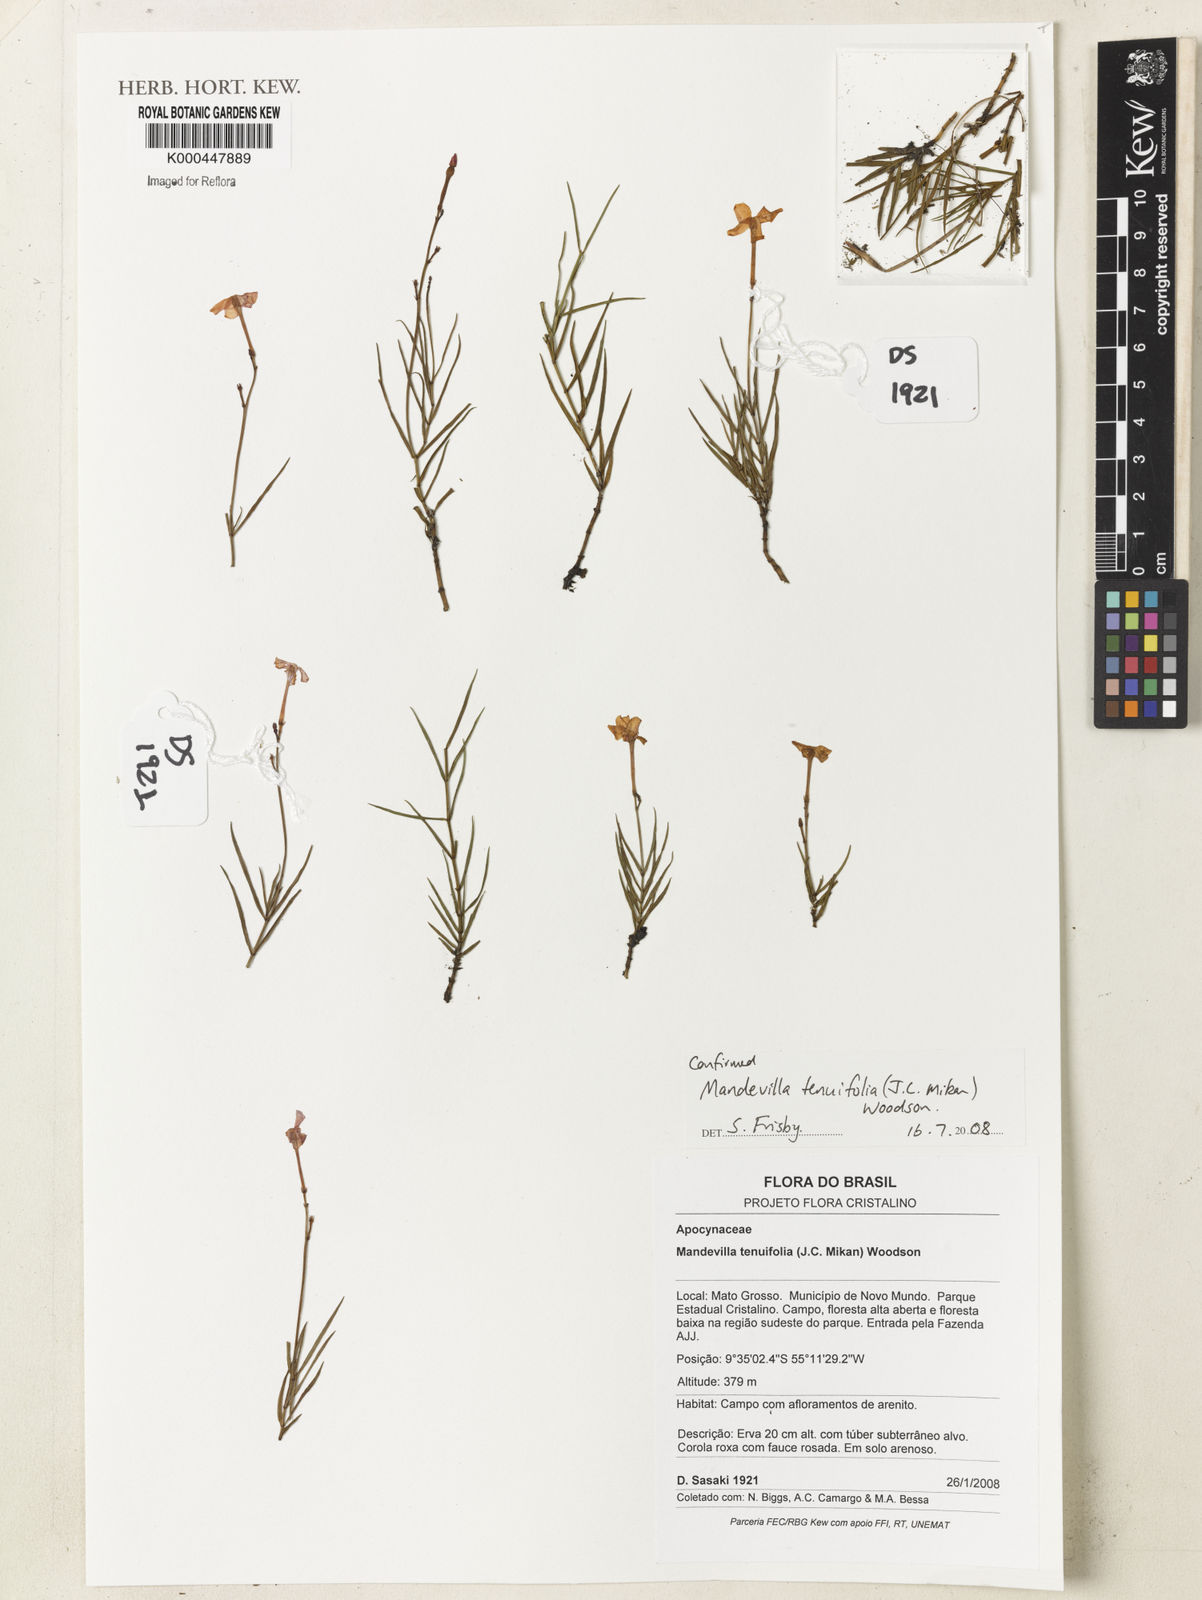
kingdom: Plantae
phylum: Tracheophyta
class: Magnoliopsida
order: Gentianales
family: Apocynaceae
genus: Mandevilla
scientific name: Mandevilla tenuifolia
